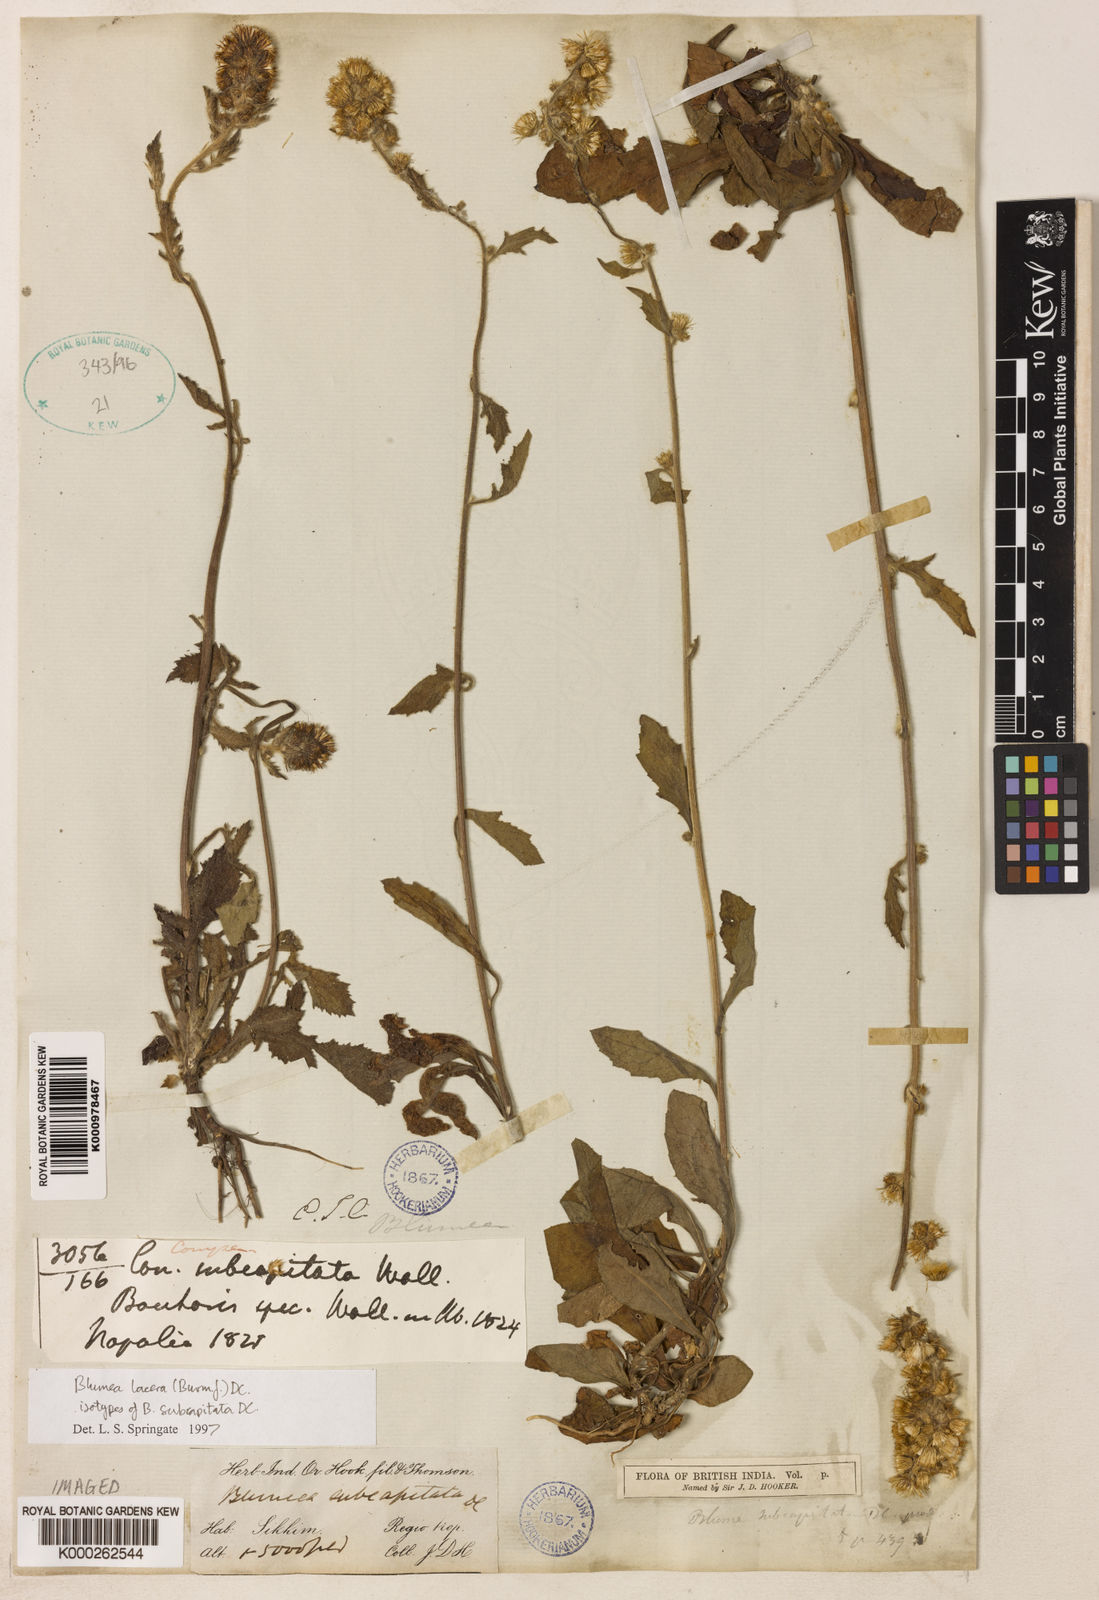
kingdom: Plantae
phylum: Tracheophyta
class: Magnoliopsida
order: Asterales
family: Asteraceae
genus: Blumea
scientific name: Blumea lacera
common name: Malay blumea
